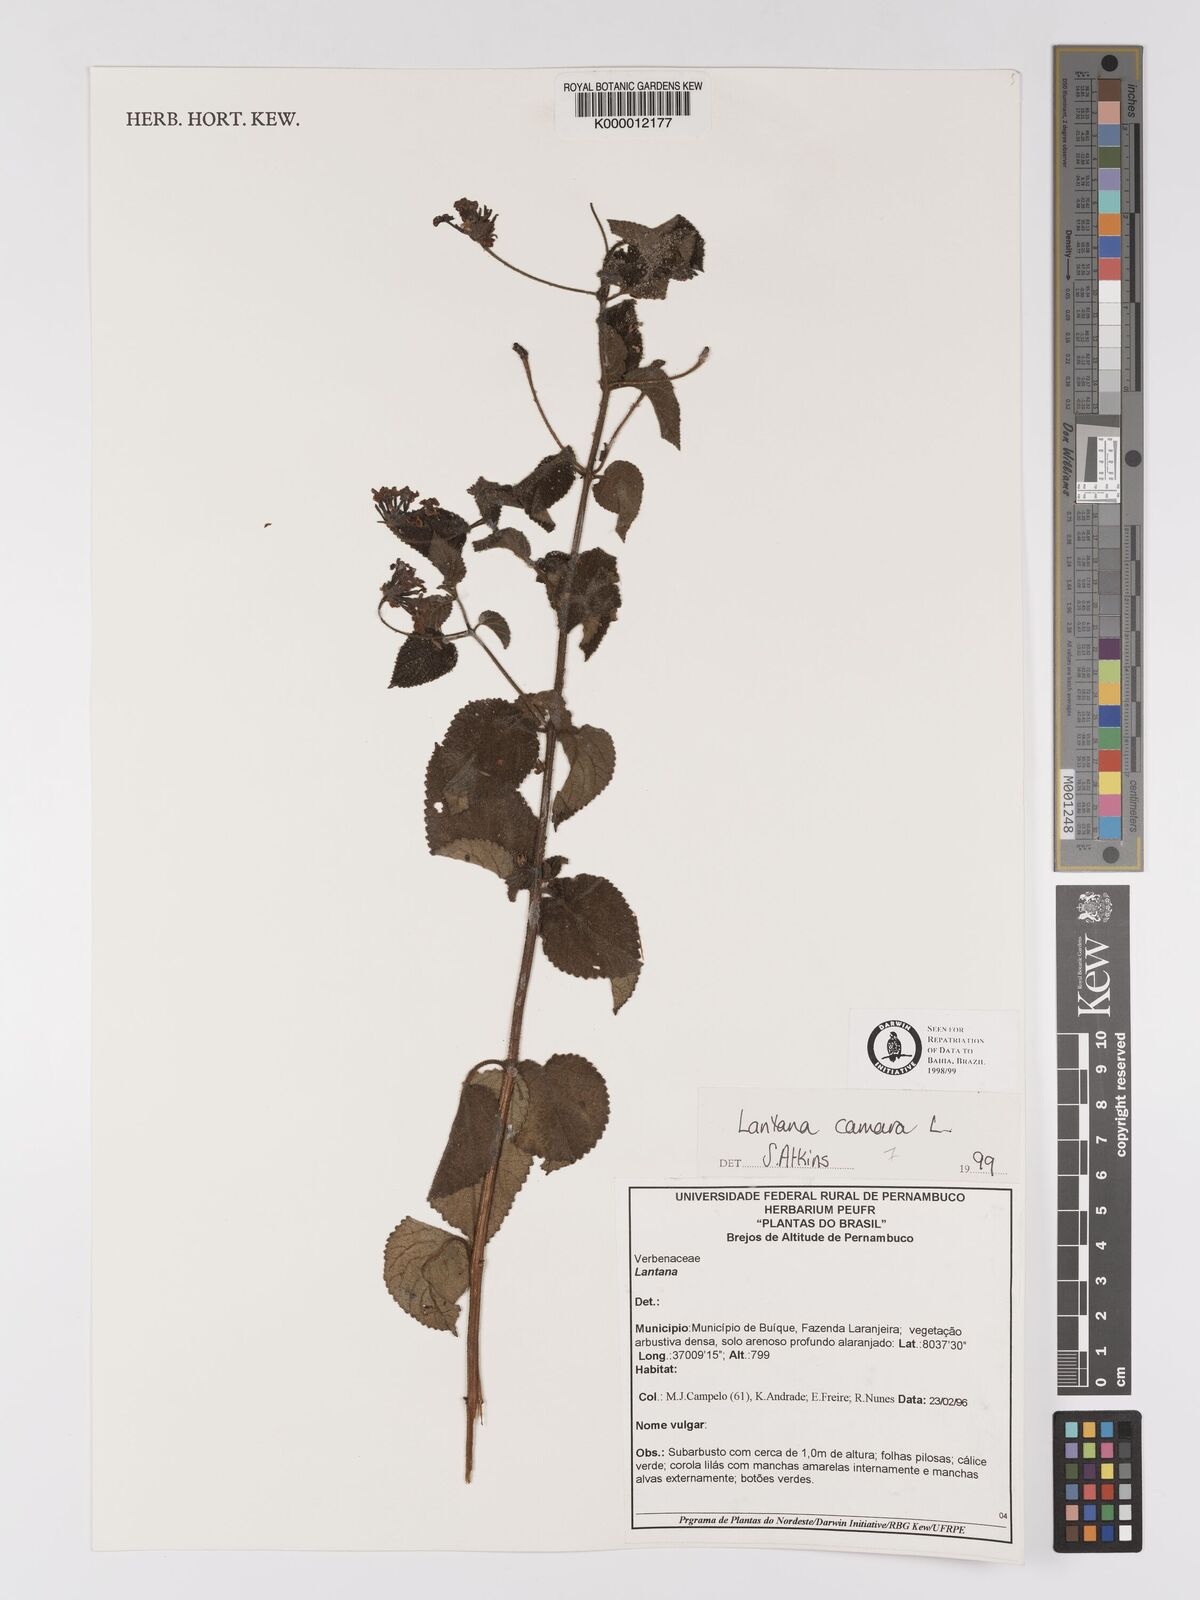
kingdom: Plantae
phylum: Tracheophyta
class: Magnoliopsida
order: Lamiales
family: Verbenaceae
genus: Lantana
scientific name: Lantana camara
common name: Lantana
